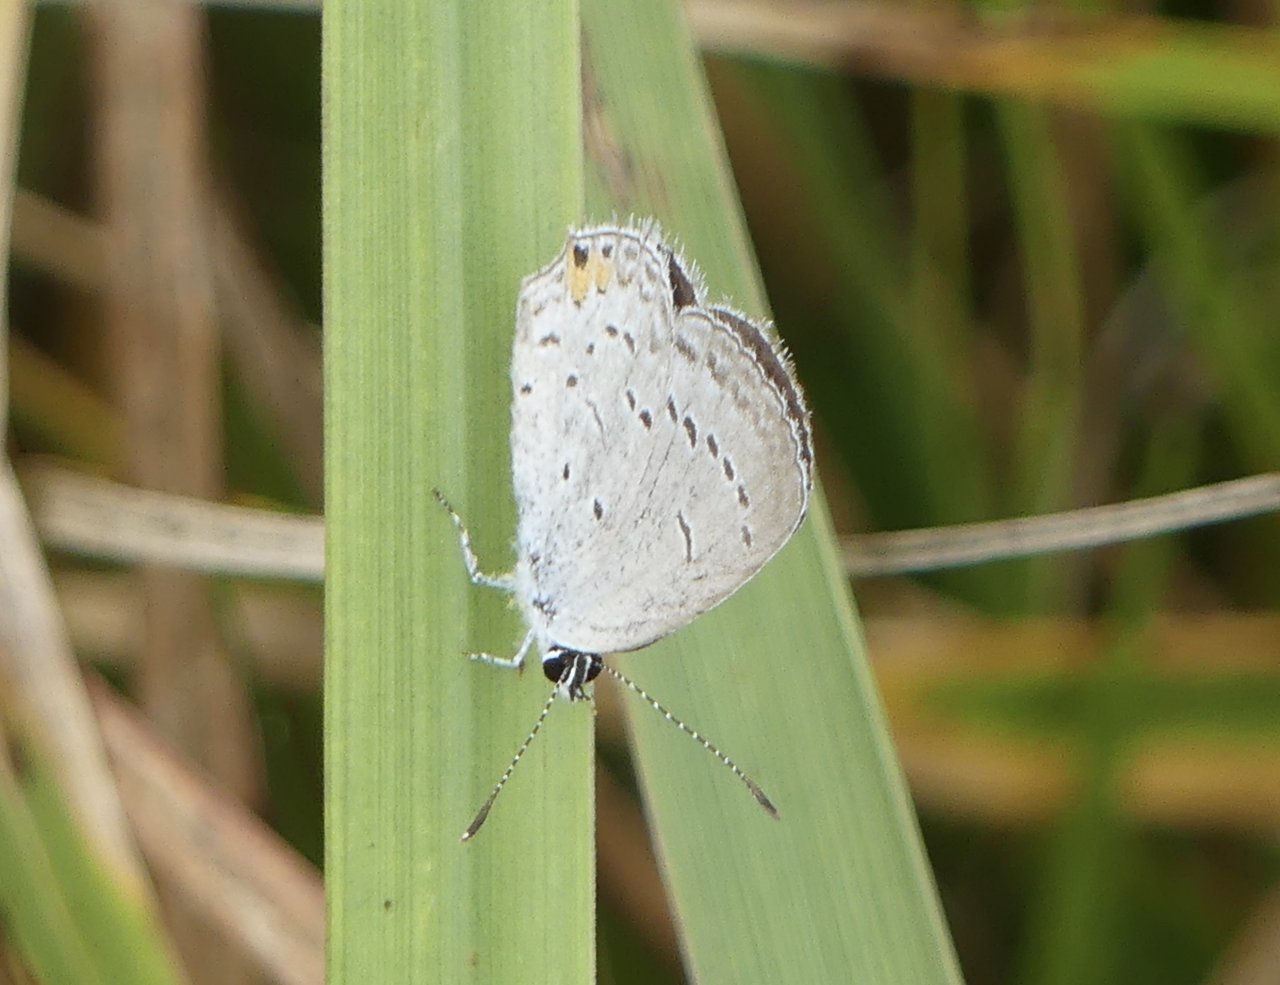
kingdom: Animalia
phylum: Arthropoda
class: Insecta
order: Lepidoptera
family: Lycaenidae
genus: Elkalyce
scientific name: Elkalyce comyntas
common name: Eastern Tailed-Blue
